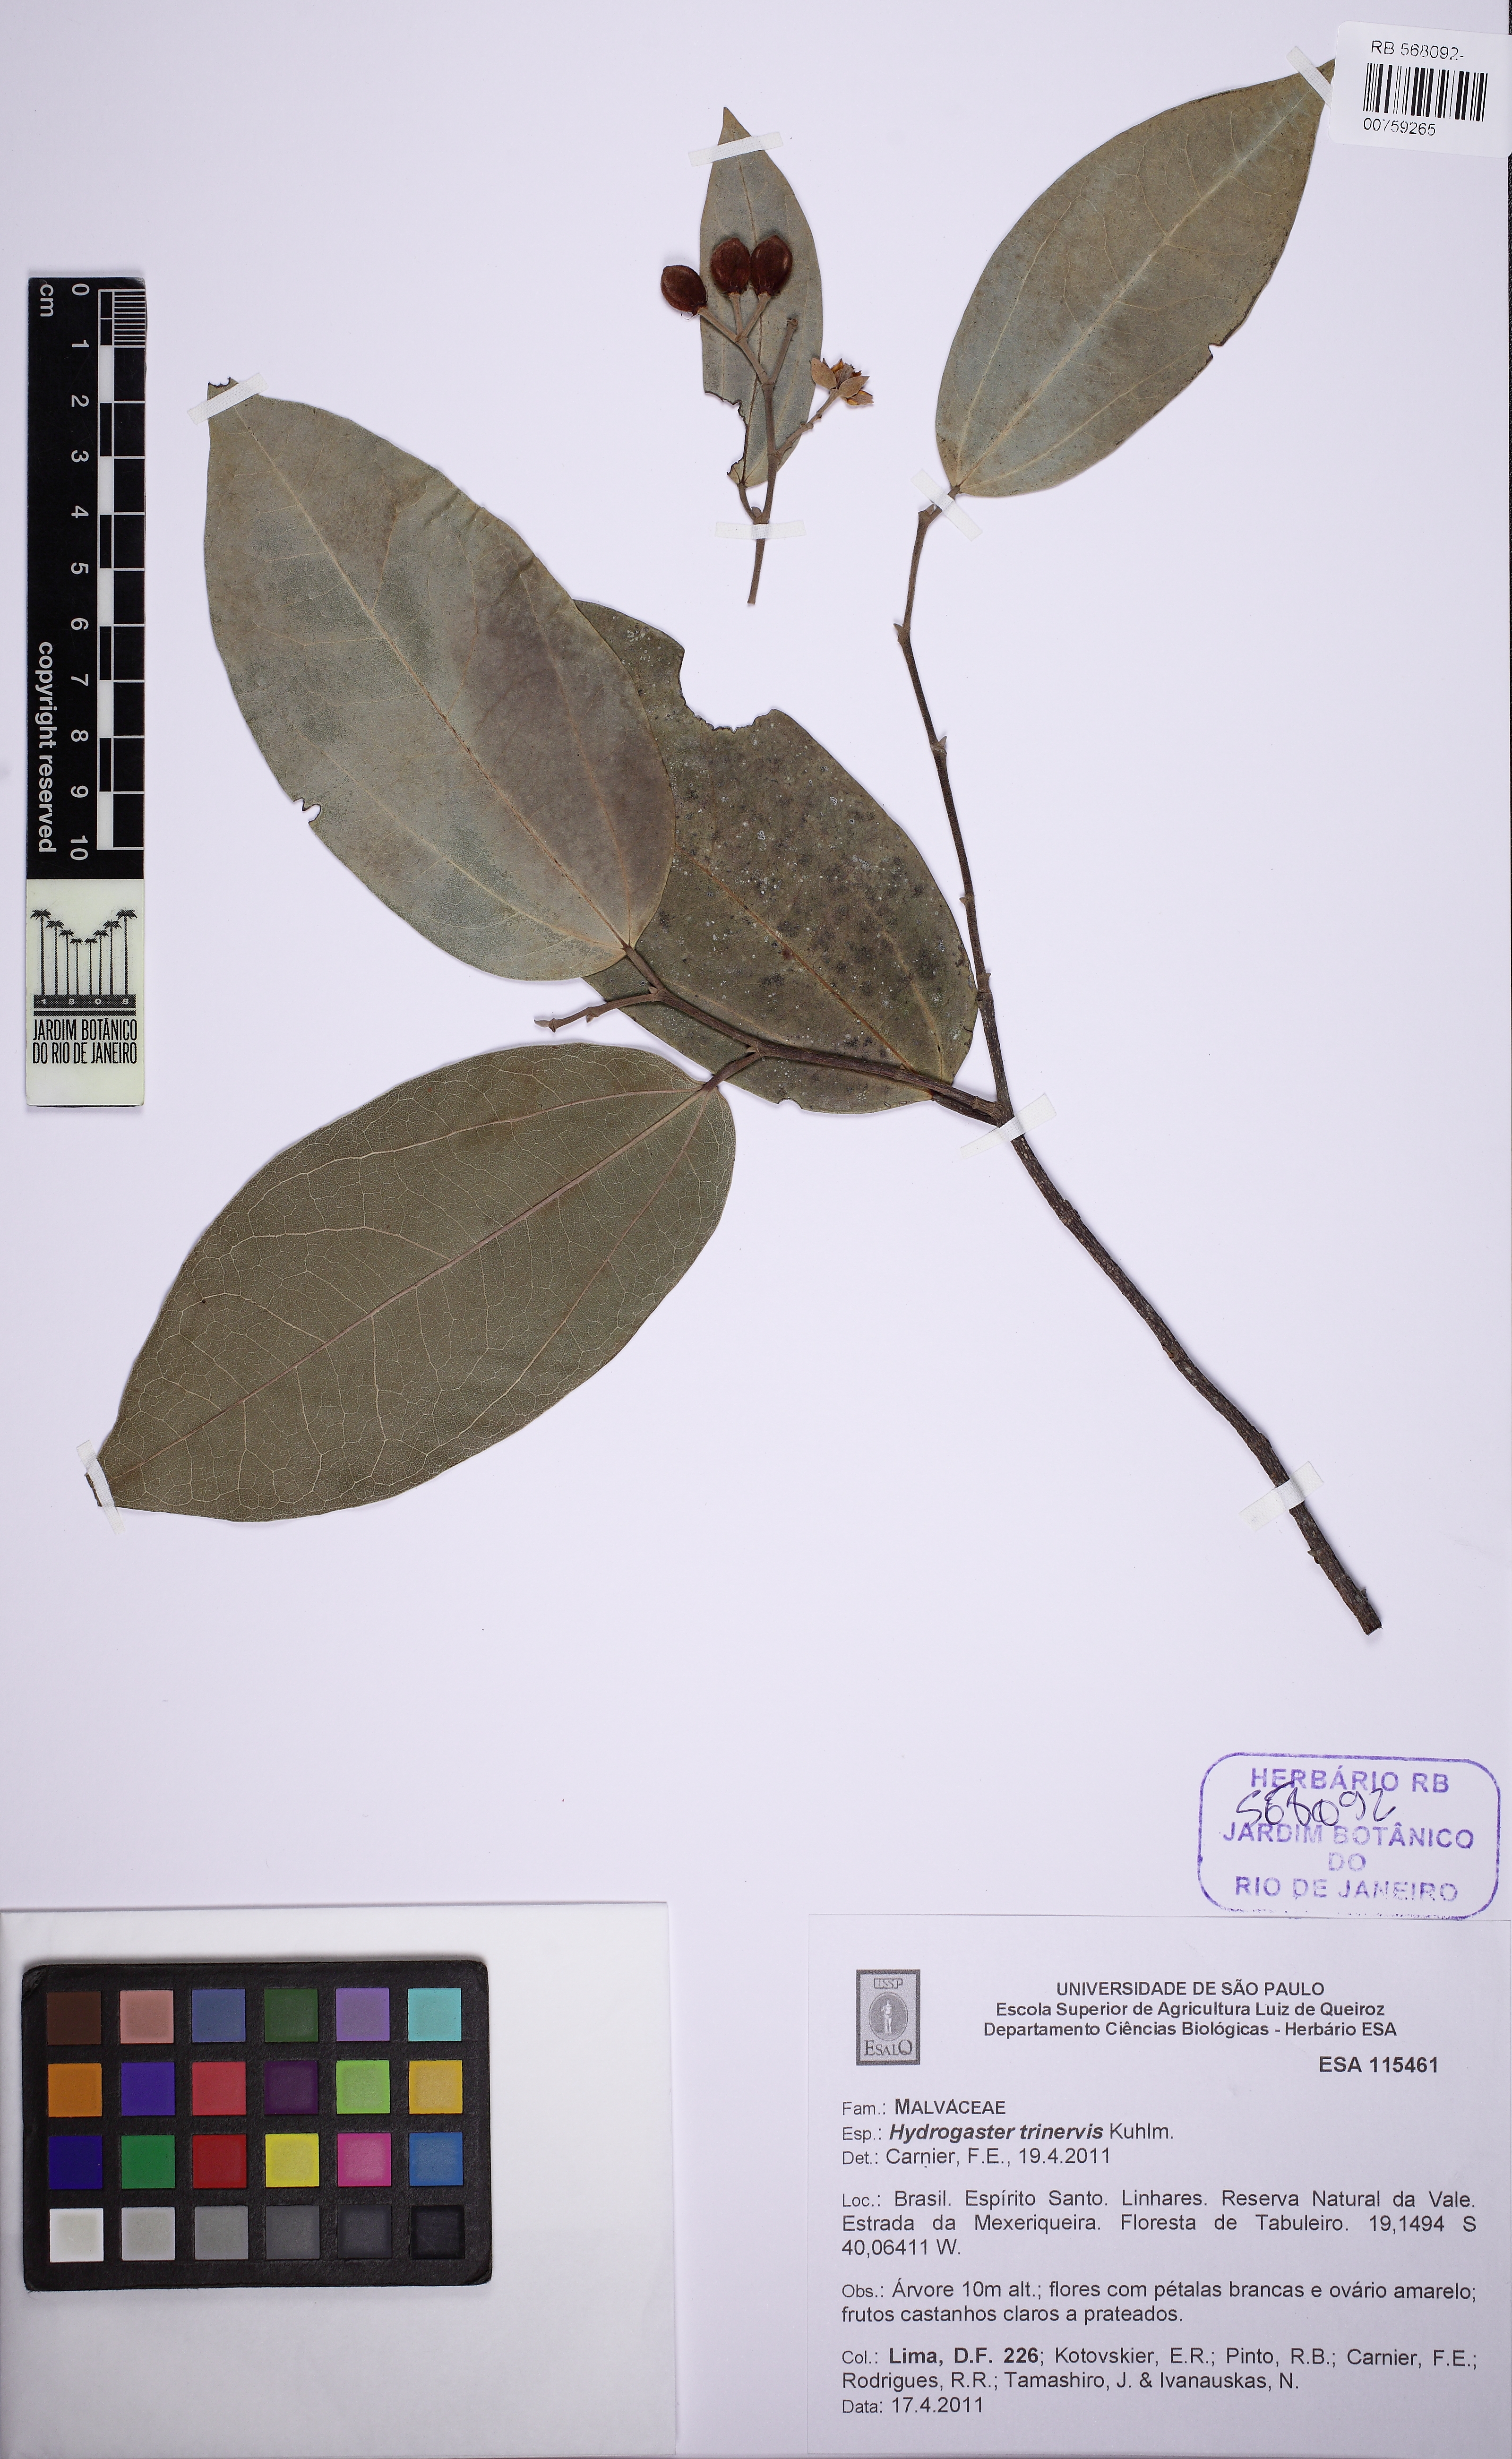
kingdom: Plantae
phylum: Tracheophyta
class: Magnoliopsida
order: Malvales
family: Malvaceae
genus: Hydrogaster
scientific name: Hydrogaster trinervis
